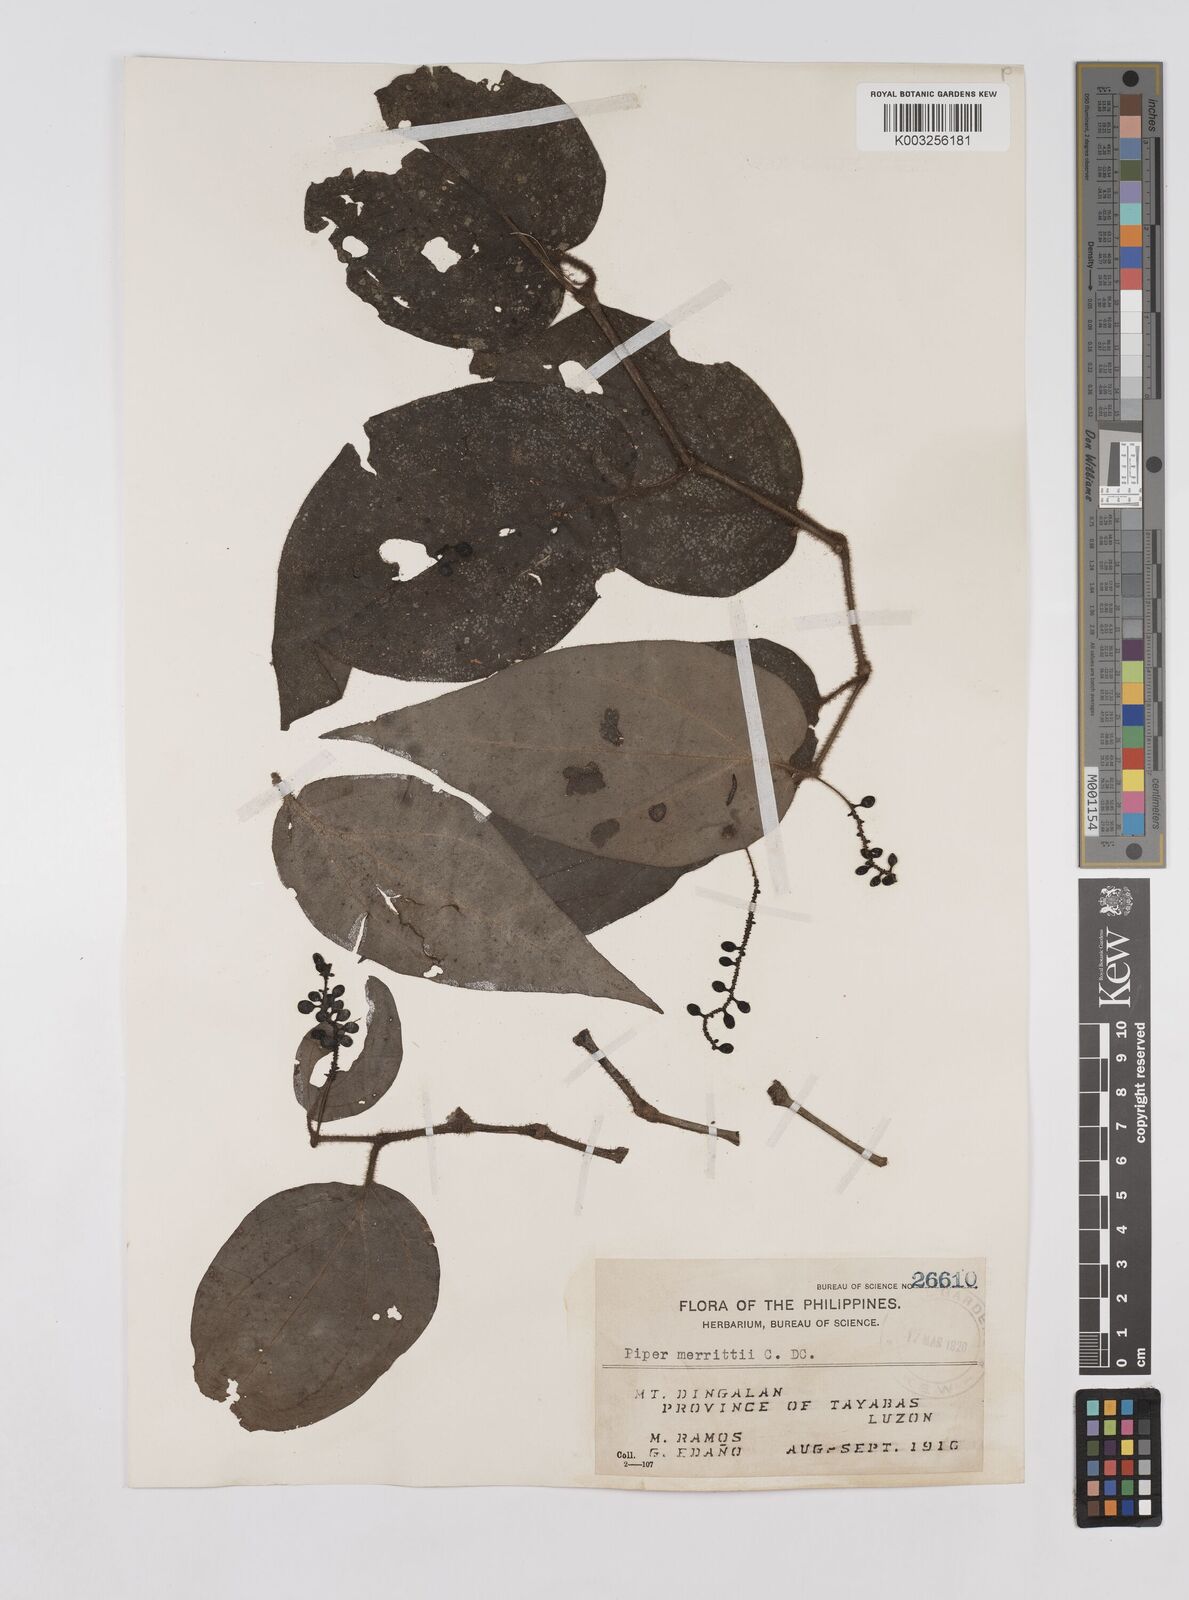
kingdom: Plantae
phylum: Tracheophyta
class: Magnoliopsida
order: Piperales
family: Piperaceae
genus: Piper
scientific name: Piper lanatum
